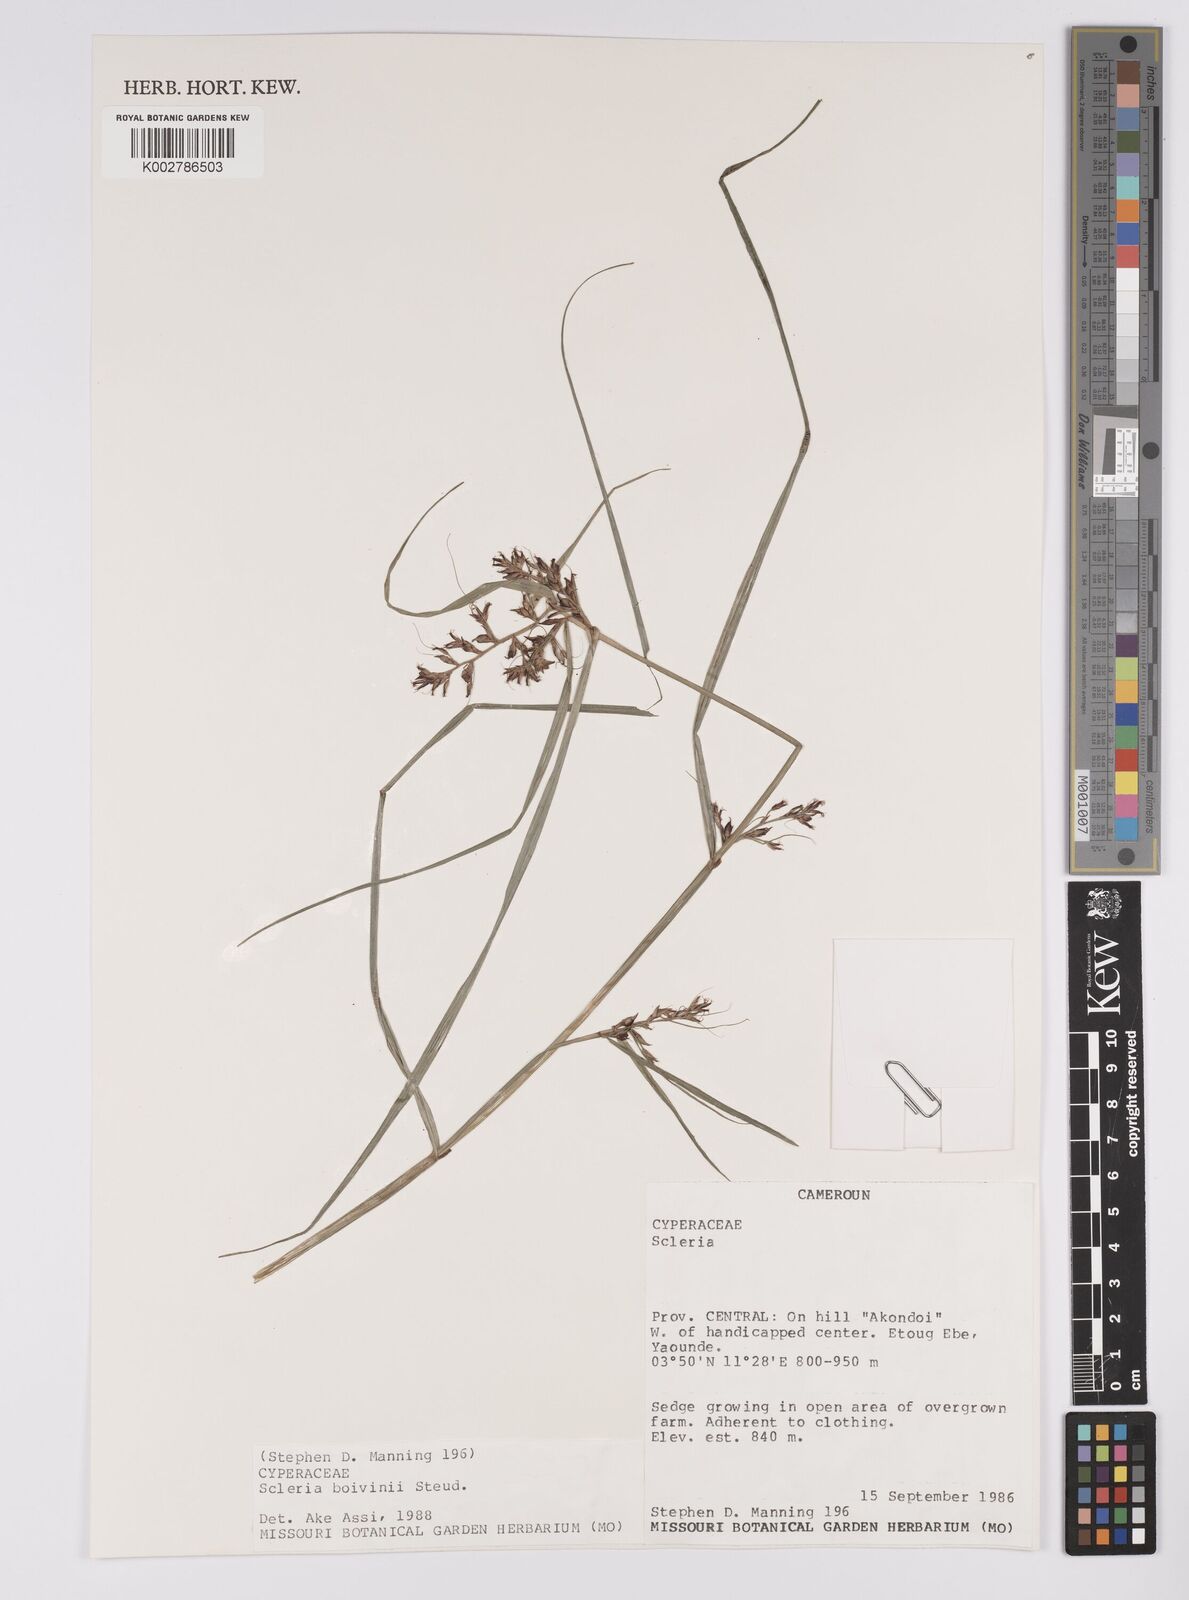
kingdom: Plantae
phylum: Tracheophyta
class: Liliopsida
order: Poales
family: Cyperaceae
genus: Scleria
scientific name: Scleria boivinii
